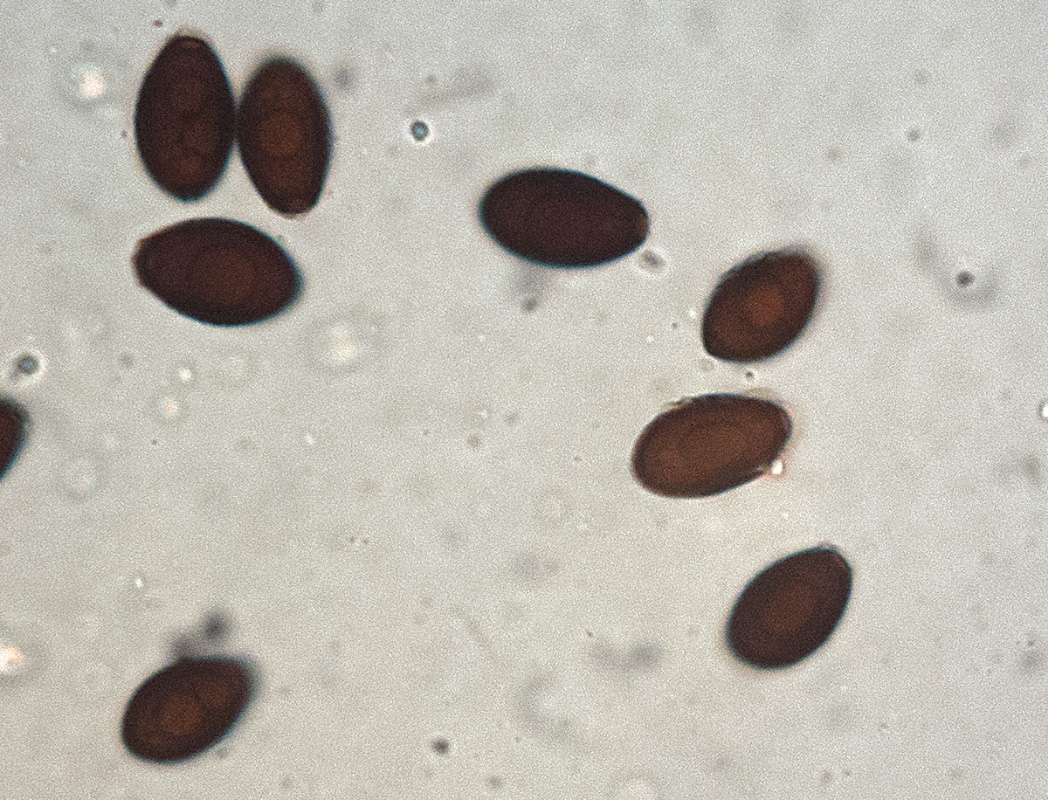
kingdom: Fungi
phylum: Basidiomycota
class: Agaricomycetes
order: Agaricales
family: Psathyrellaceae
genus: Coprinopsis
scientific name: Coprinopsis martinii
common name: rigkær-blækhat
